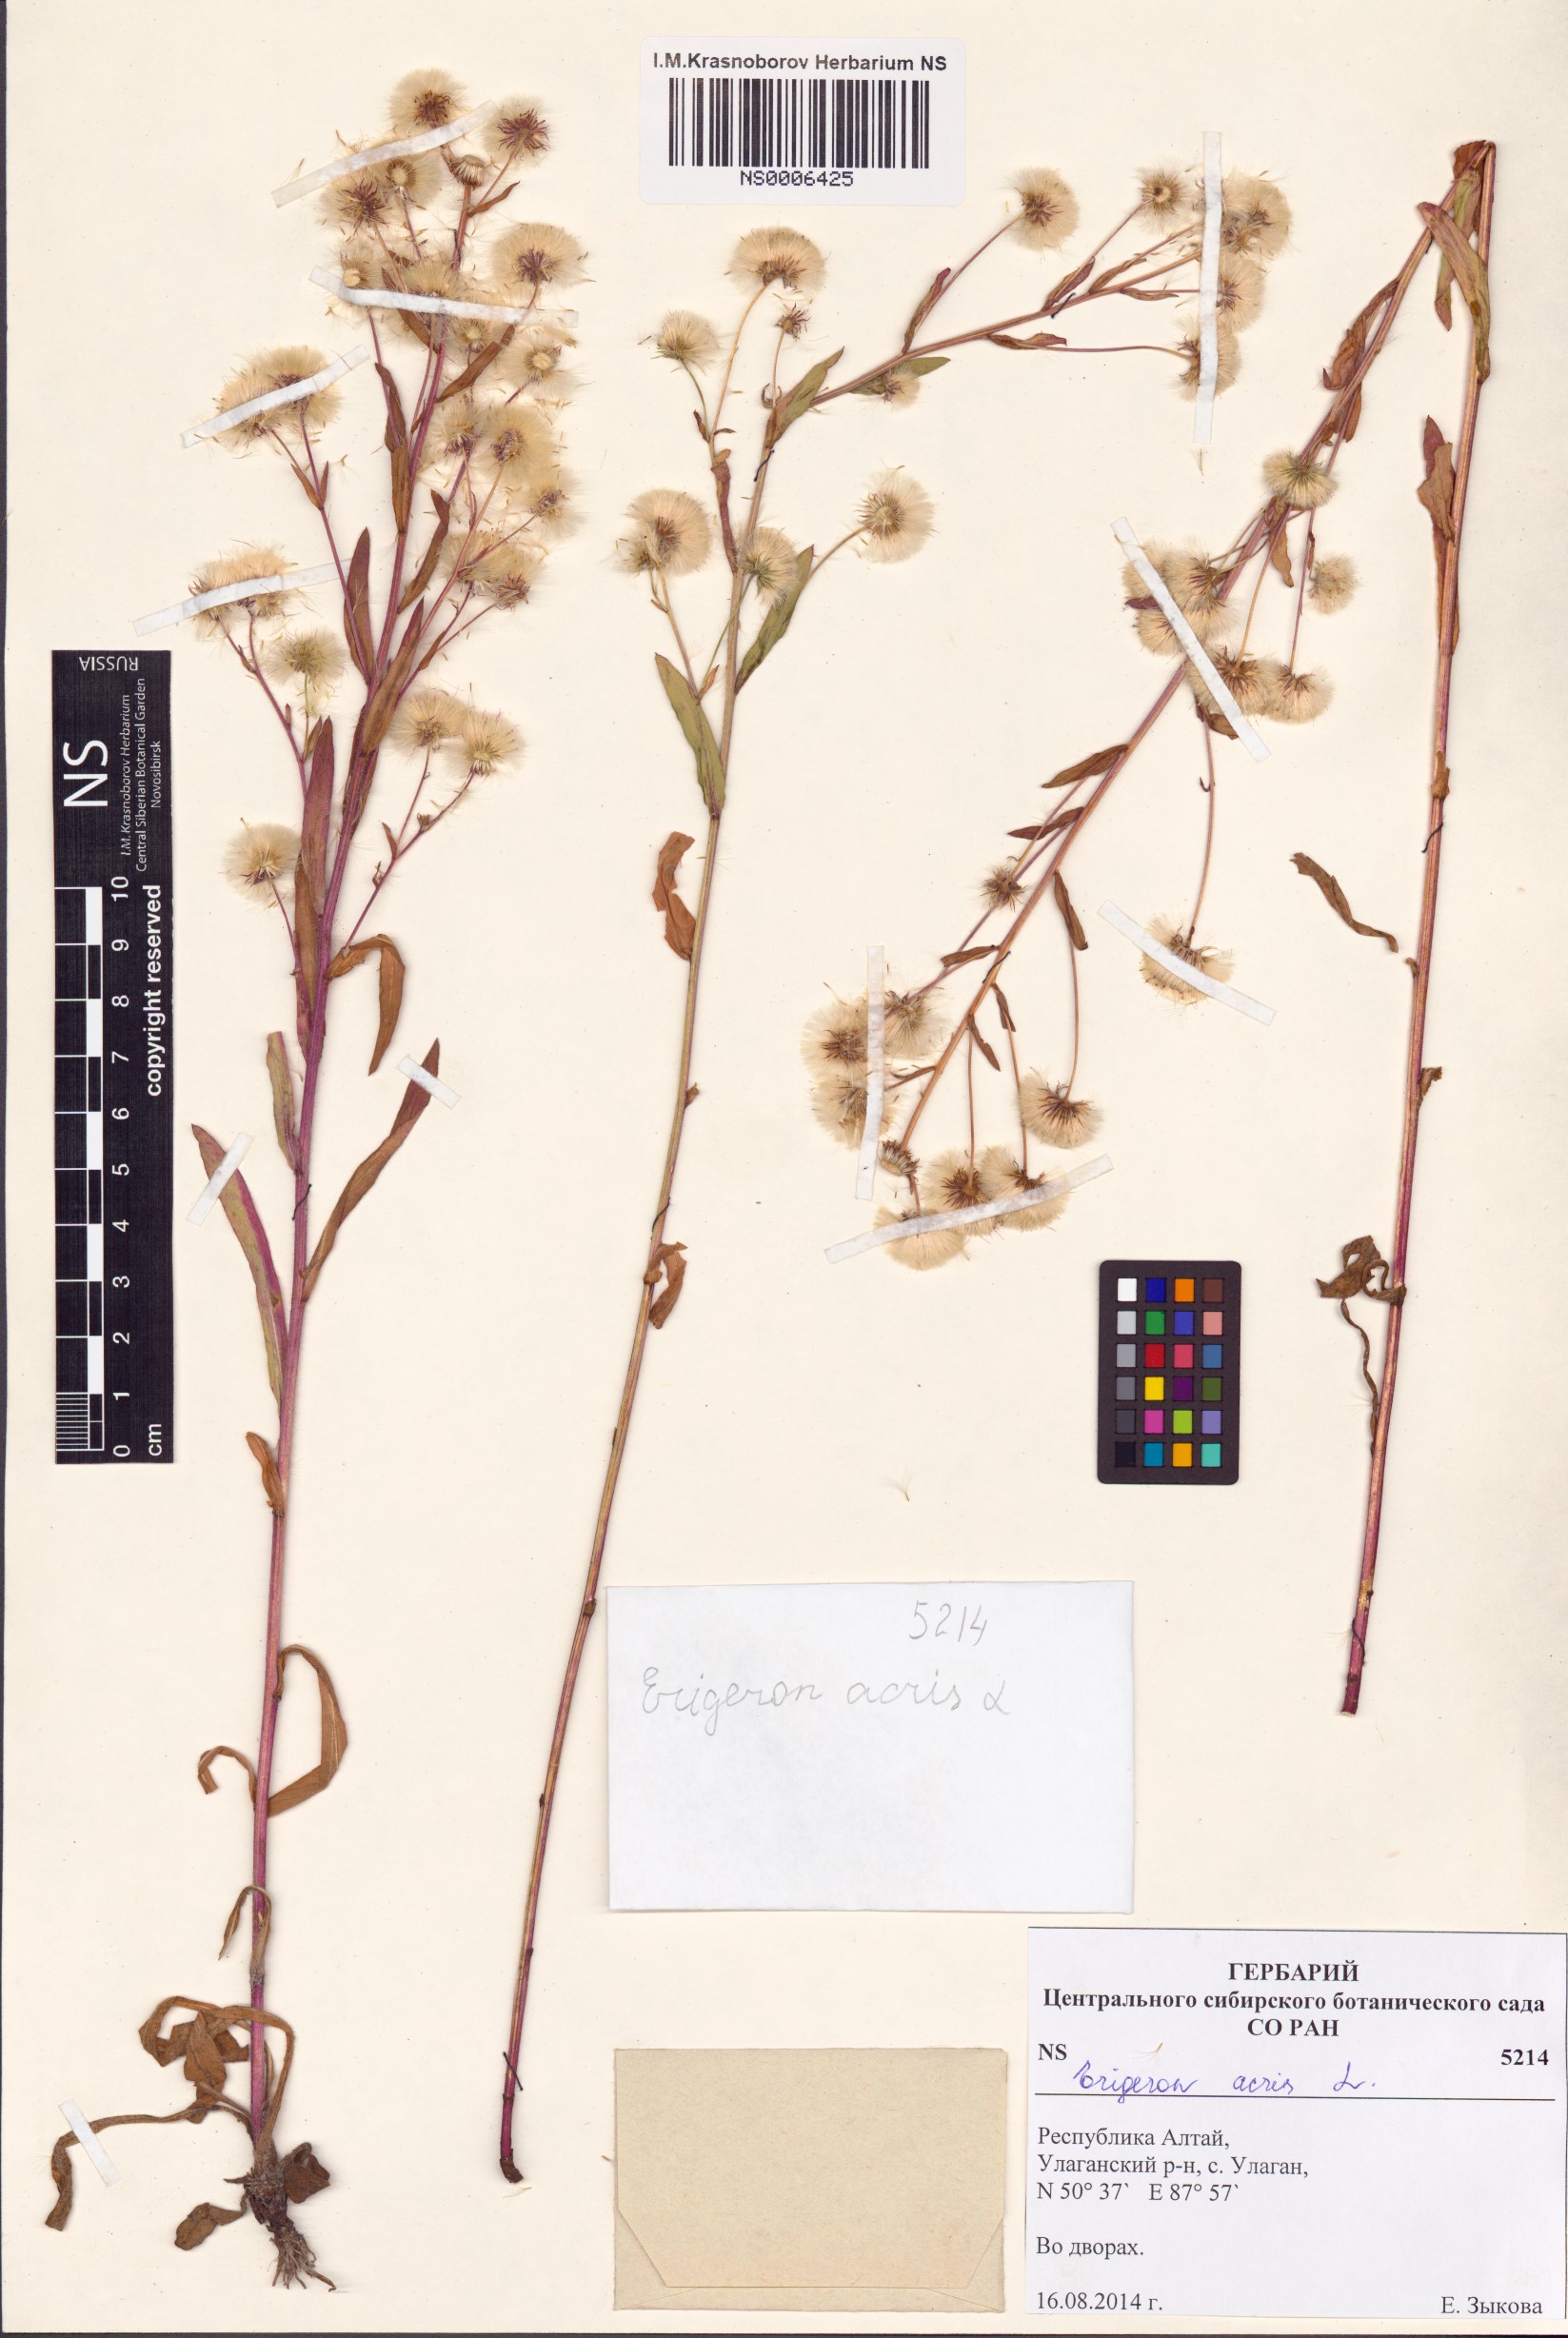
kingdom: Plantae
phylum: Tracheophyta
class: Magnoliopsida
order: Asterales
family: Asteraceae
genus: Erigeron
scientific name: Erigeron acris
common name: Blue fleabane
